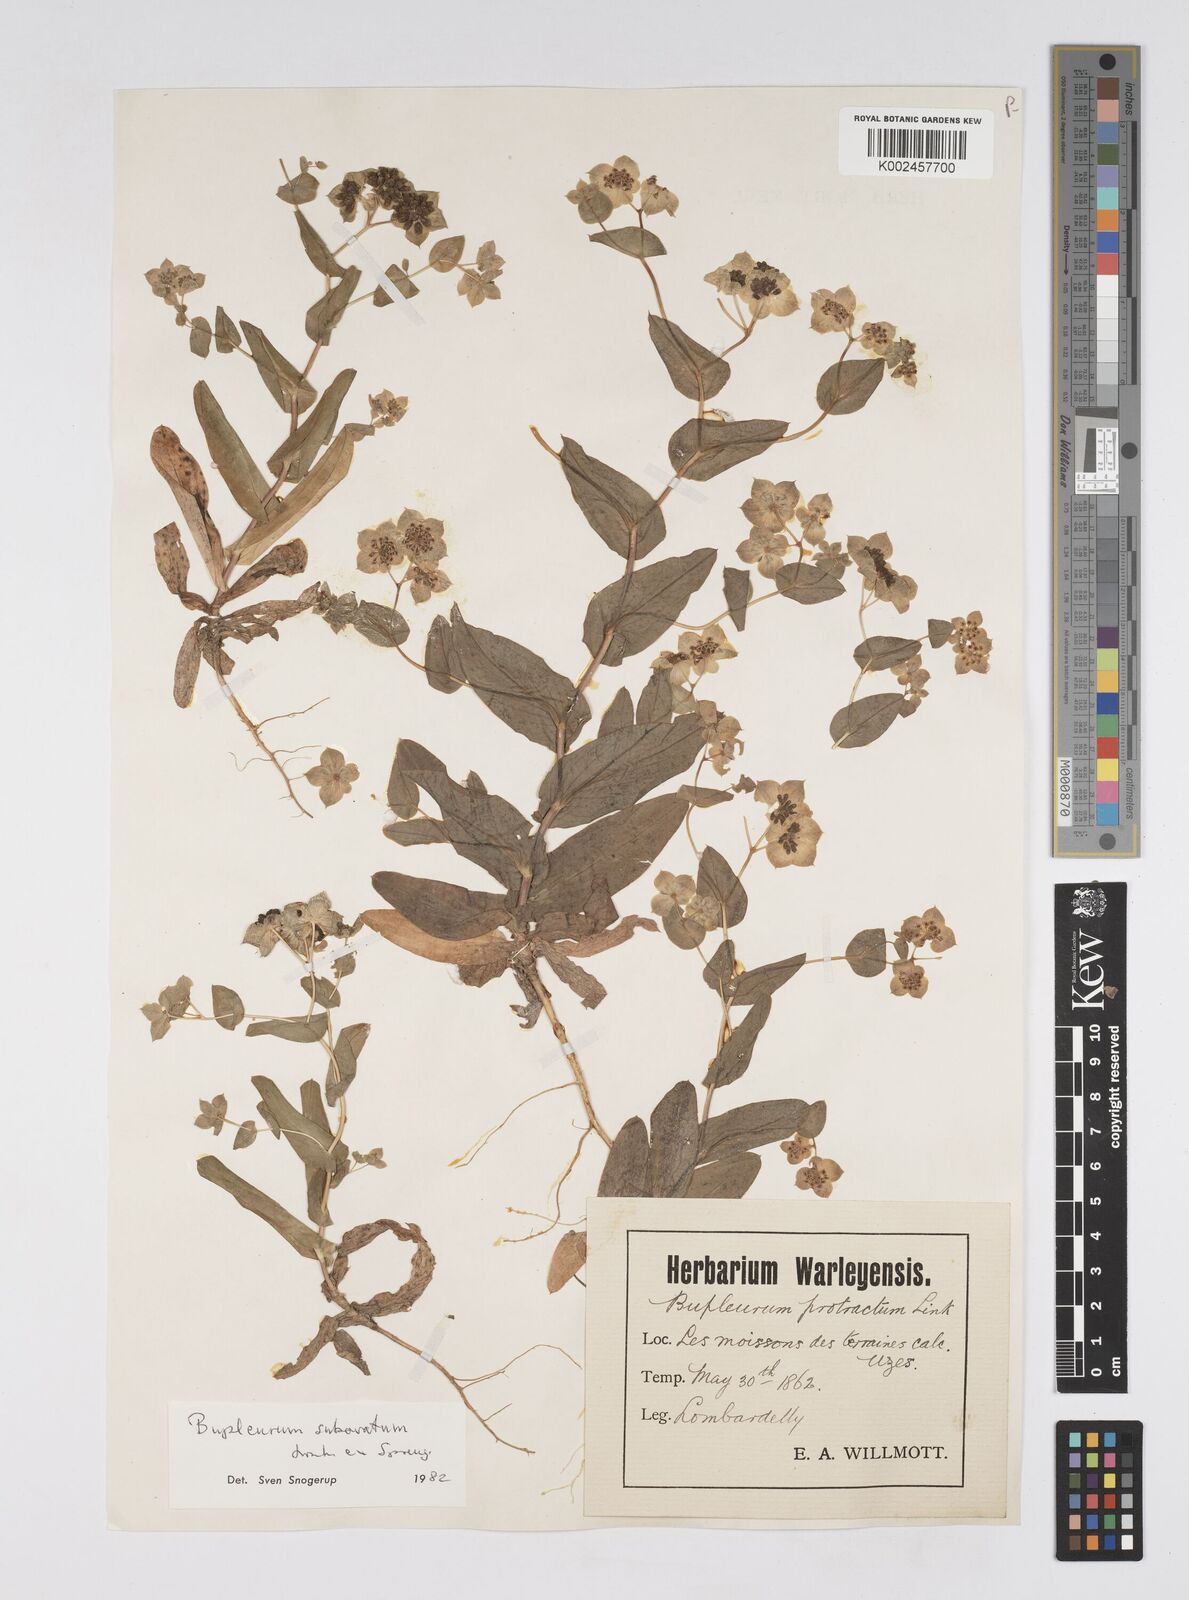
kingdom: Plantae
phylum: Tracheophyta
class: Magnoliopsida
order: Apiales
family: Apiaceae
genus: Bupleurum
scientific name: Bupleurum lancifolium
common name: False thorow-wax
